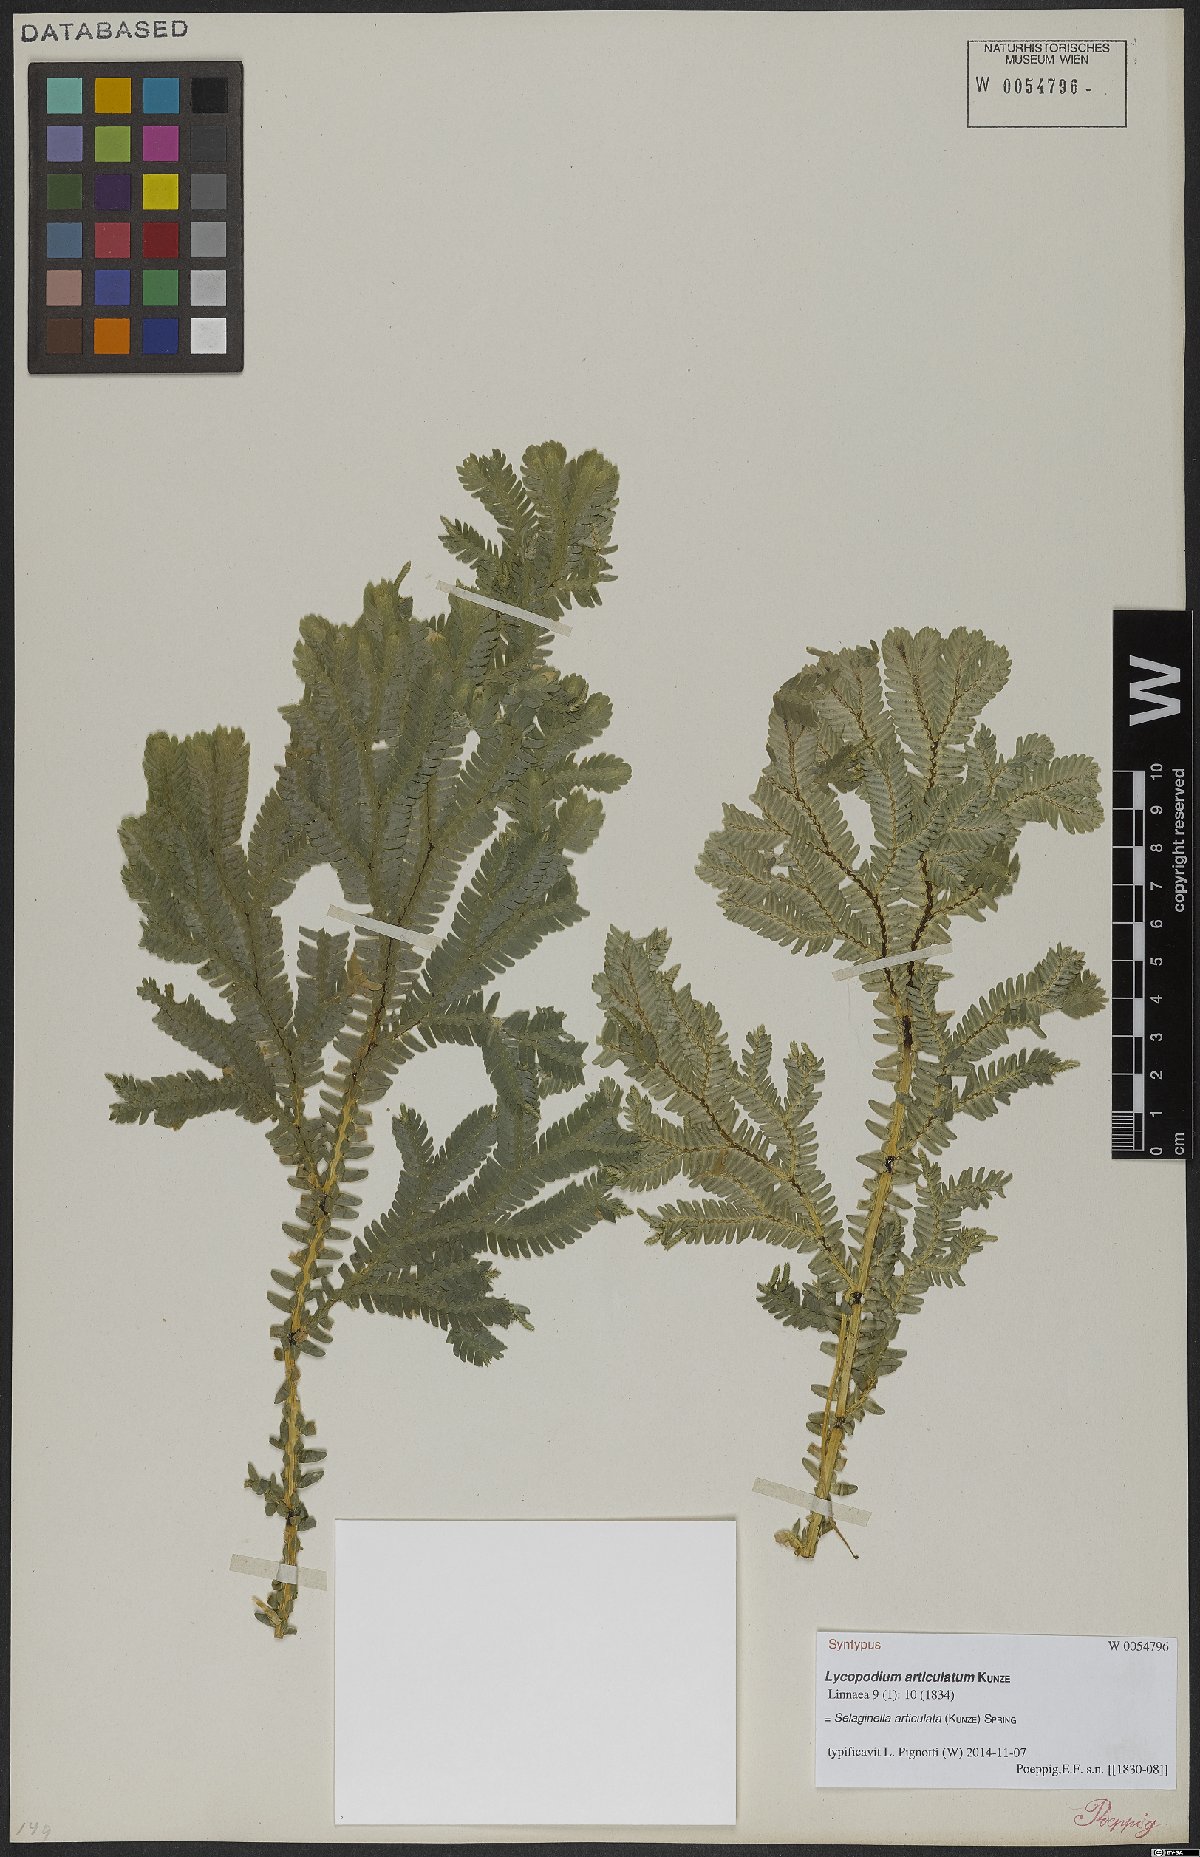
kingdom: Plantae
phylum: Tracheophyta
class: Lycopodiopsida
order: Selaginellales
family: Selaginellaceae
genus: Selaginella
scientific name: Selaginella articulata
